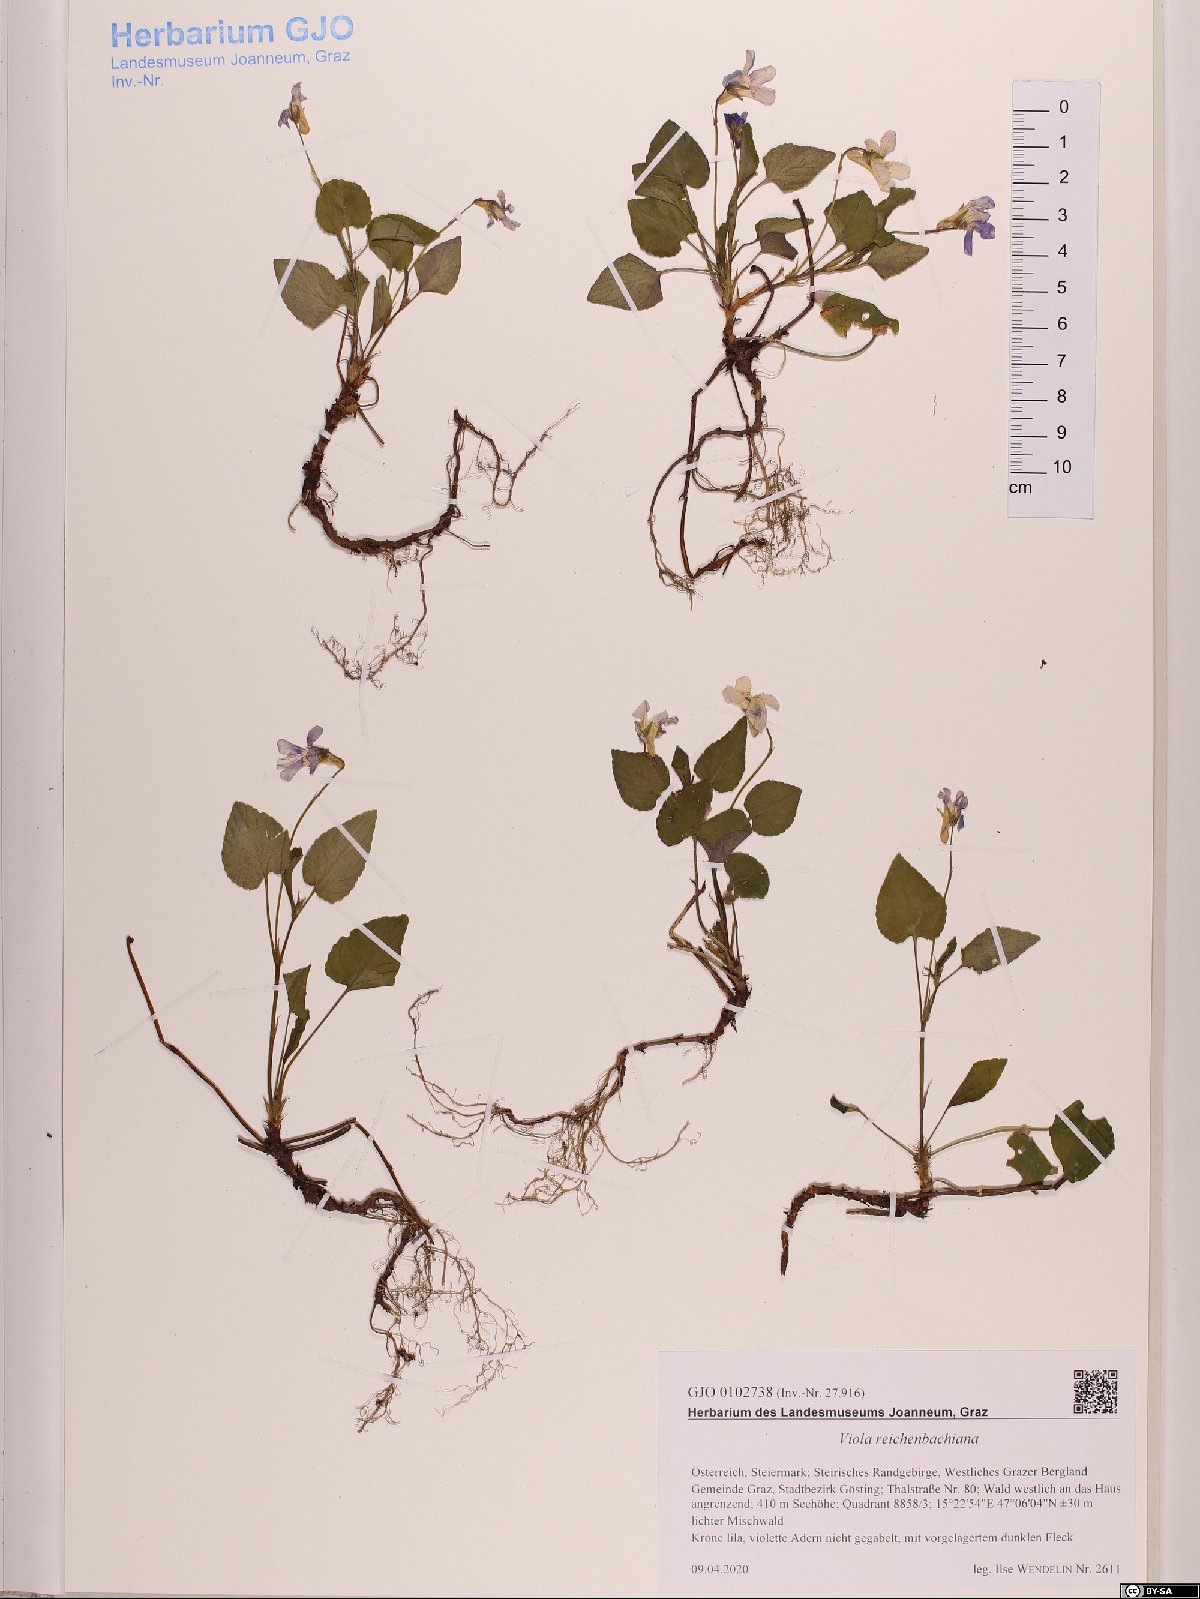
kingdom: Plantae
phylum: Tracheophyta
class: Magnoliopsida
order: Malpighiales
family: Violaceae
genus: Viola
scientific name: Viola reichenbachiana
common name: Early dog-violet
